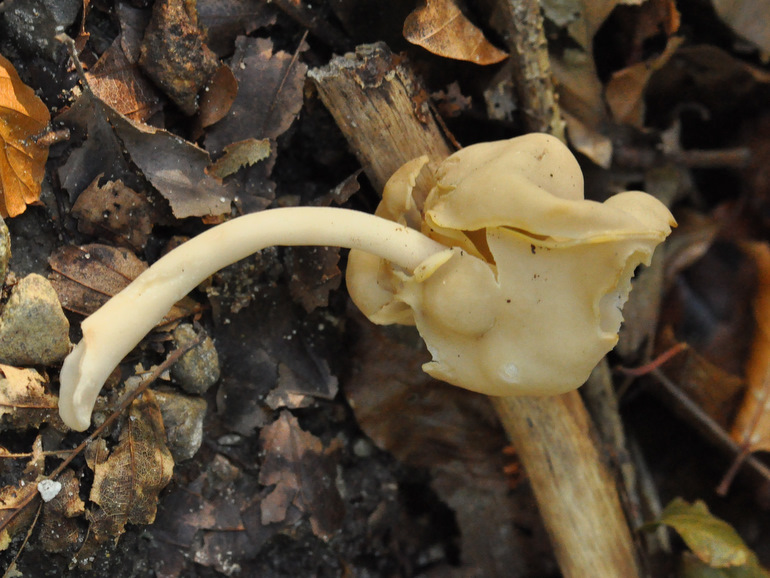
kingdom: Fungi
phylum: Ascomycota
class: Pezizomycetes
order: Pezizales
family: Helvellaceae
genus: Helvella
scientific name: Helvella elastica
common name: elastik-foldhat
